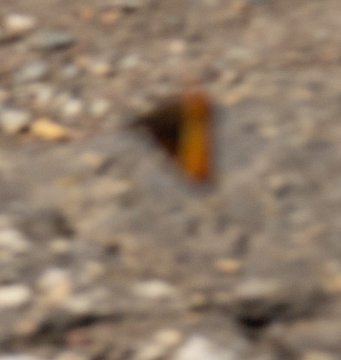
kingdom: Animalia
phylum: Arthropoda
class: Insecta
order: Lepidoptera
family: Nymphalidae
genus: Nymphalis
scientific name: Nymphalis californica
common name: California Tortoiseshell
